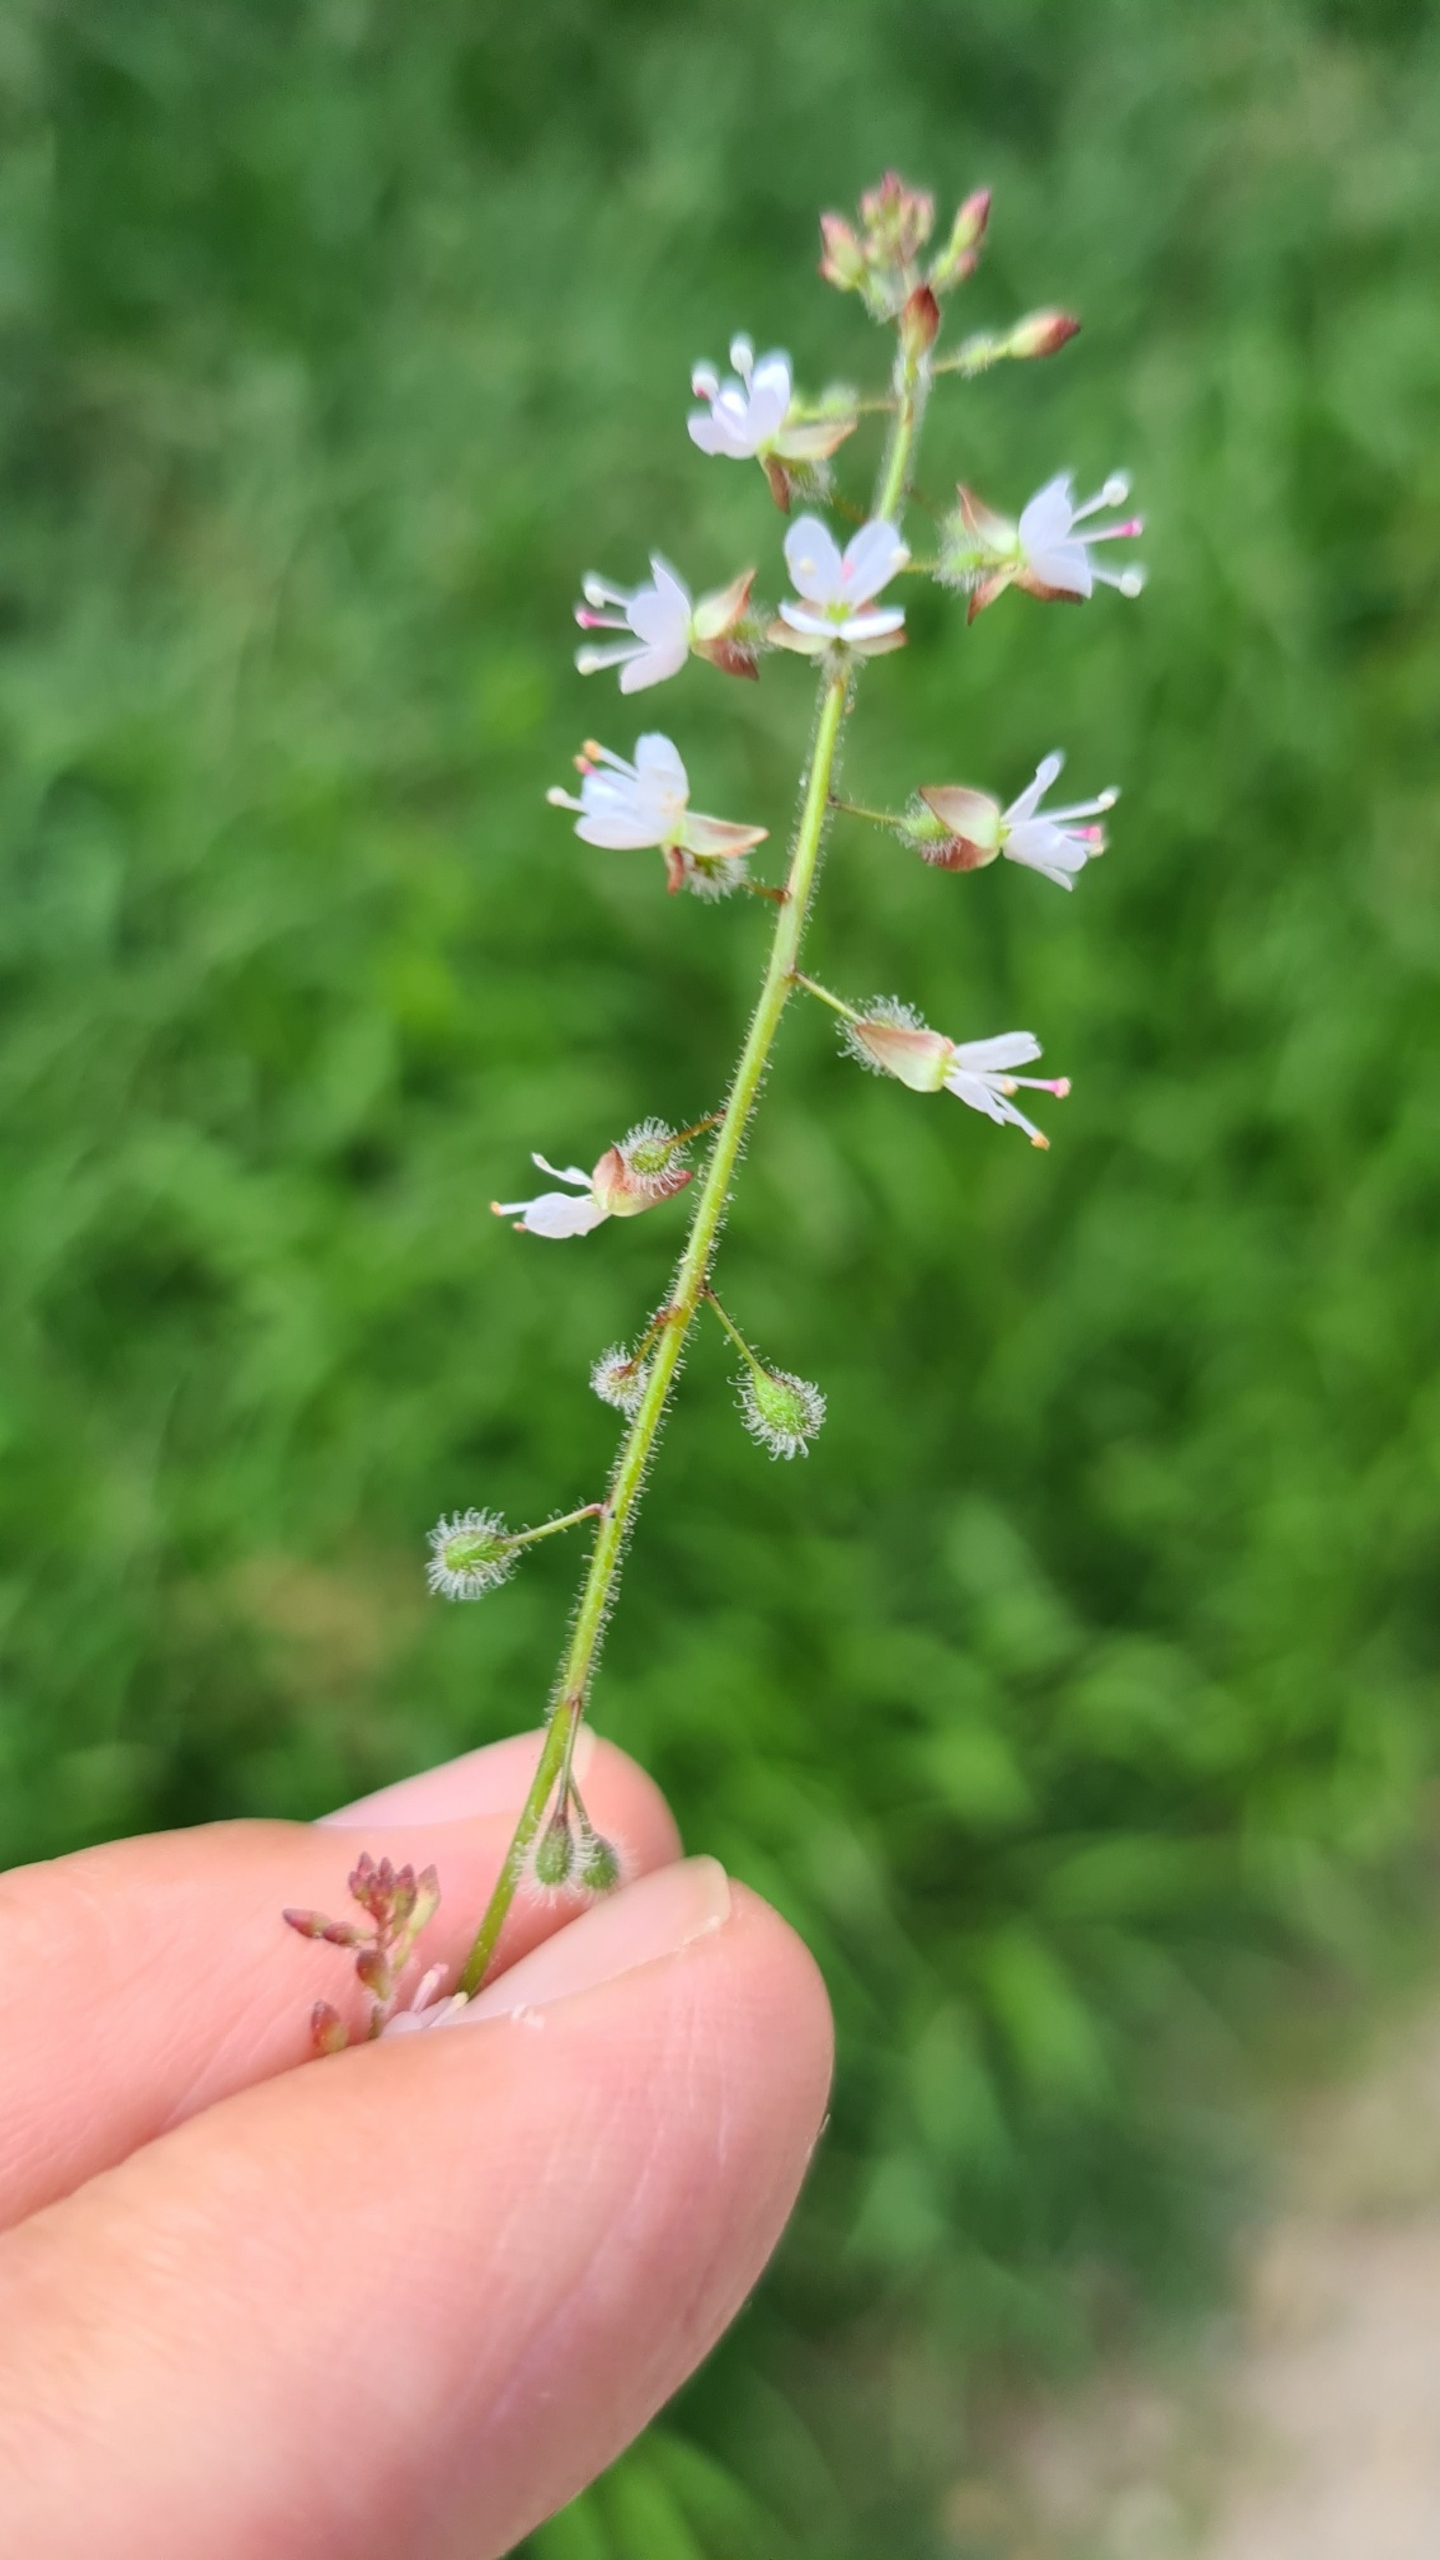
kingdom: Plantae
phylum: Tracheophyta
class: Magnoliopsida
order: Myrtales
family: Onagraceae
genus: Circaea
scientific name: Circaea lutetiana
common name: Dunet steffensurt
